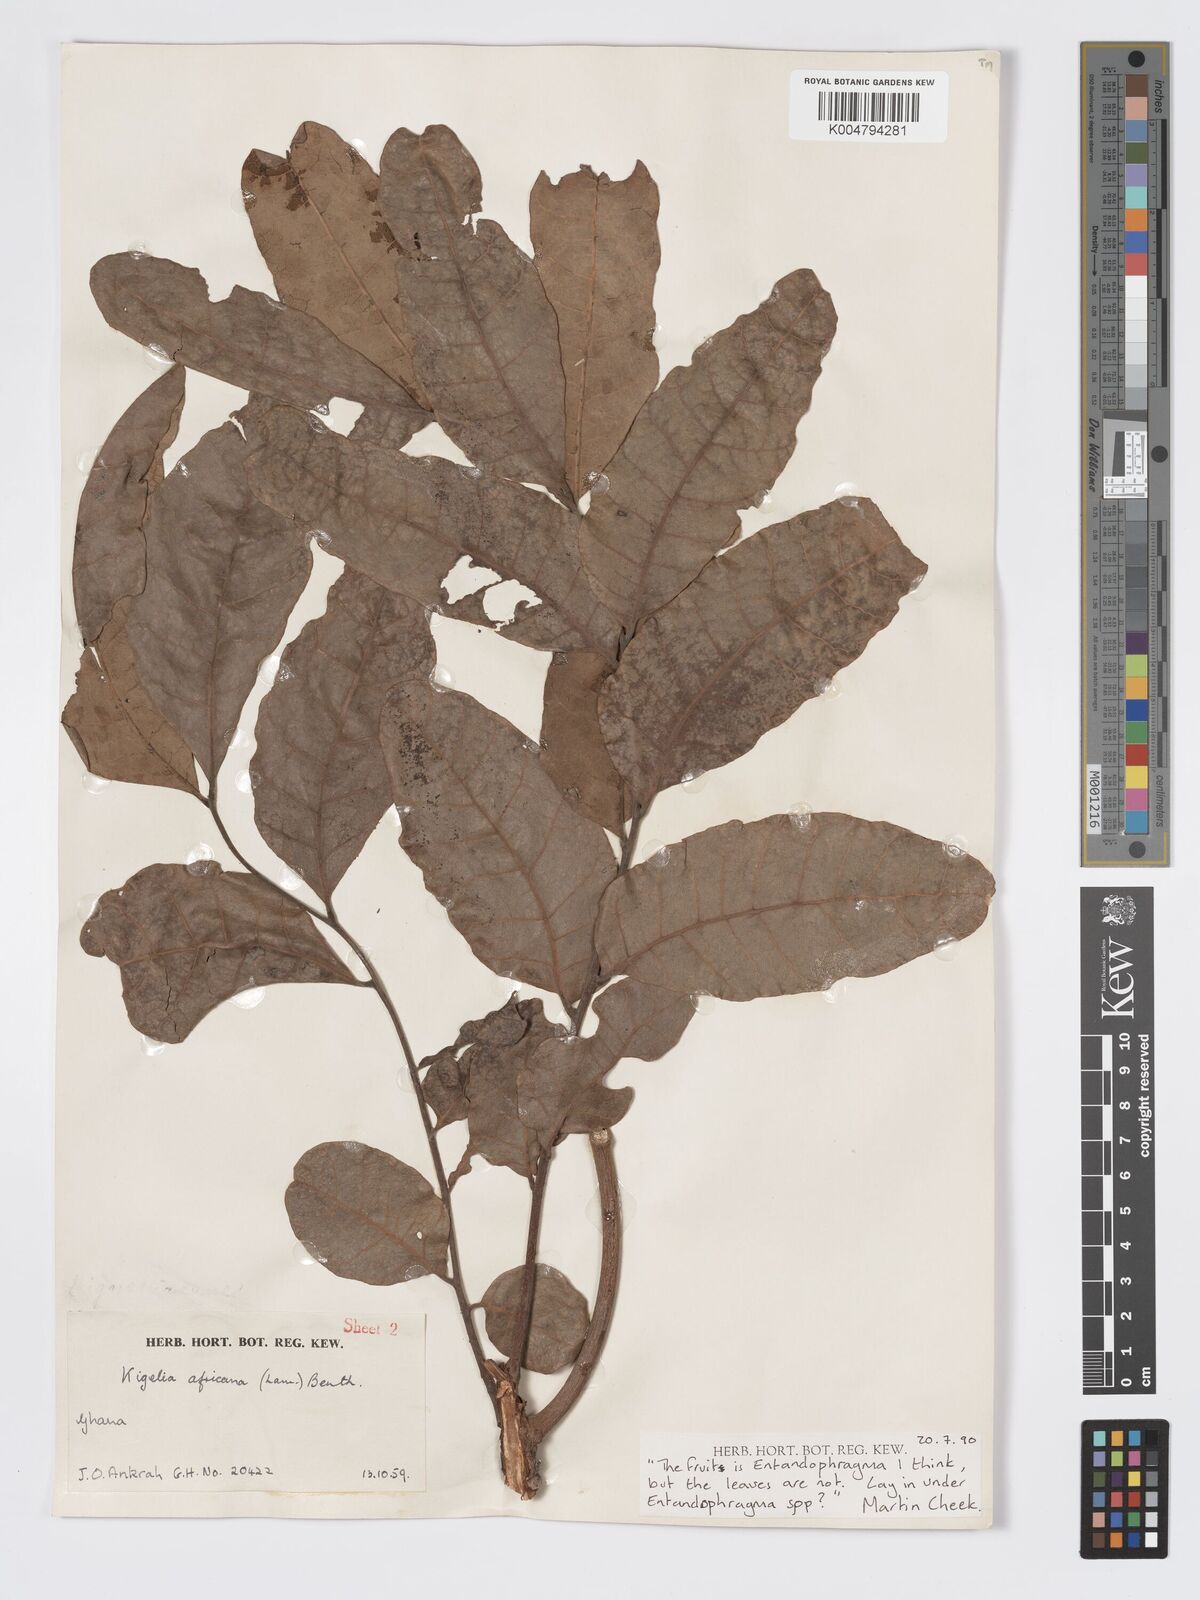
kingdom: Plantae
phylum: Tracheophyta
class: Magnoliopsida
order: Sapindales
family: Meliaceae
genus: Entandrophragma
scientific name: Entandrophragma
